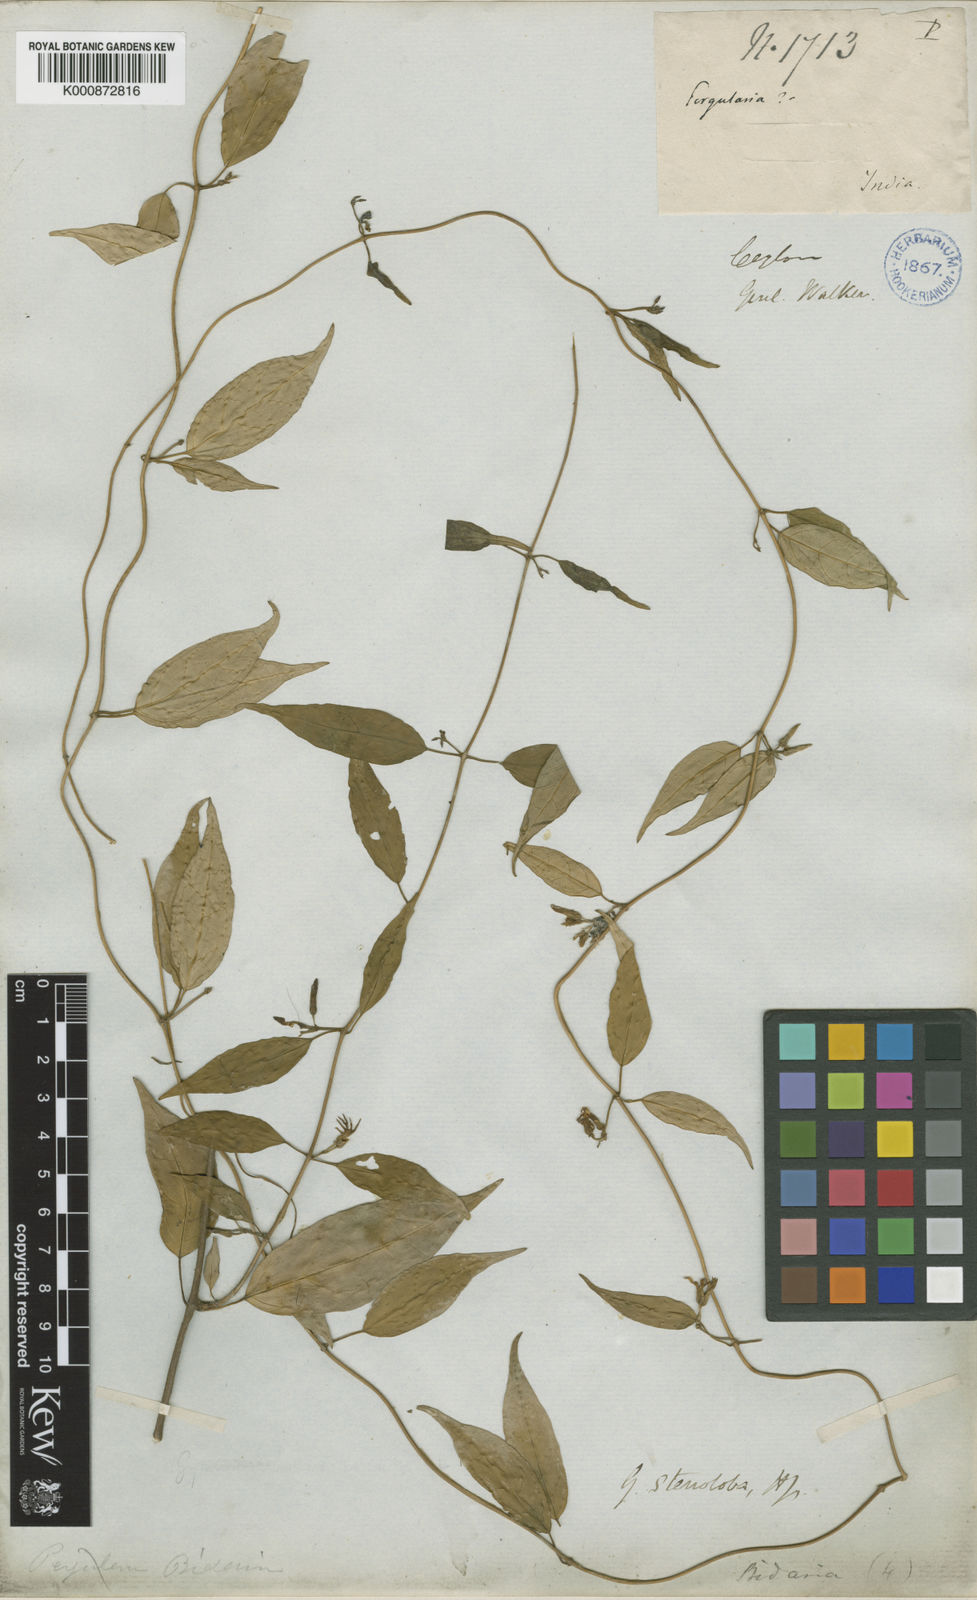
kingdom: Plantae
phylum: Tracheophyta
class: Magnoliopsida
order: Gentianales
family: Apocynaceae
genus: Gymnema
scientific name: Gymnema cuspidatum
